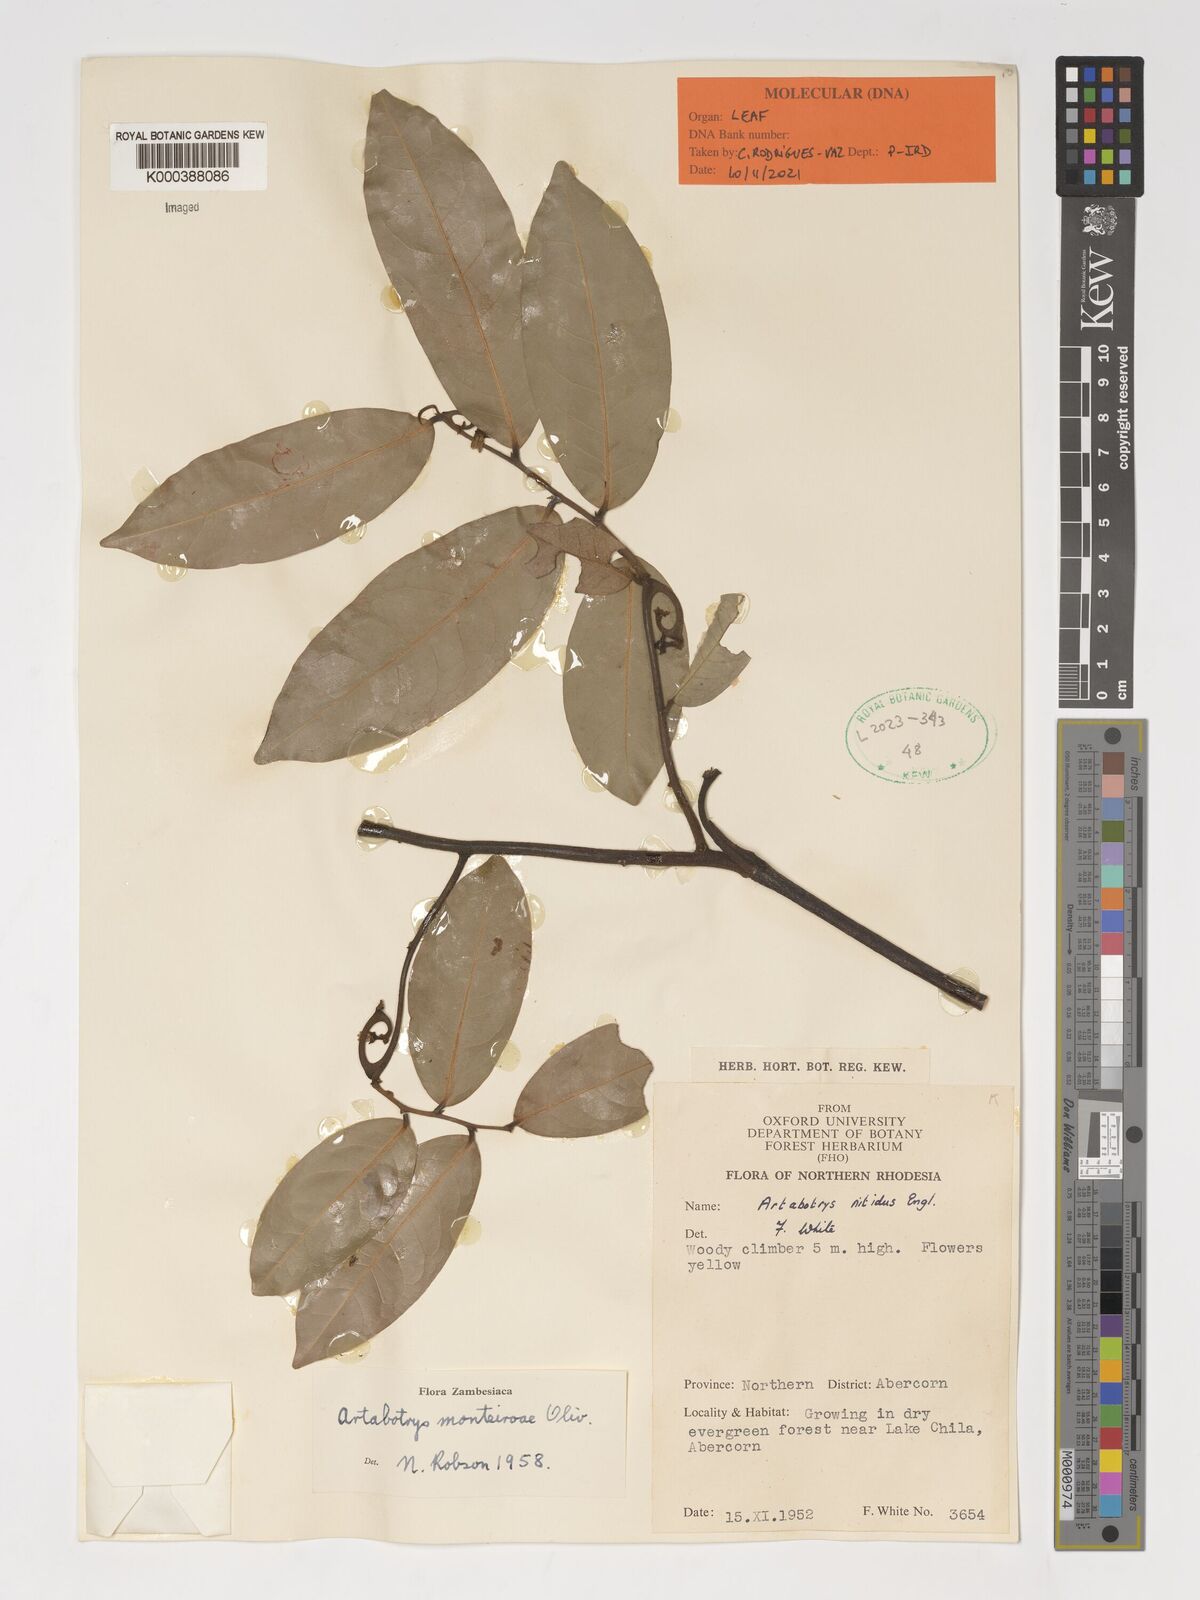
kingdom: Plantae
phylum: Tracheophyta
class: Magnoliopsida
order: Magnoliales
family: Annonaceae
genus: Artabotrys
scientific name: Artabotrys monteiroae
